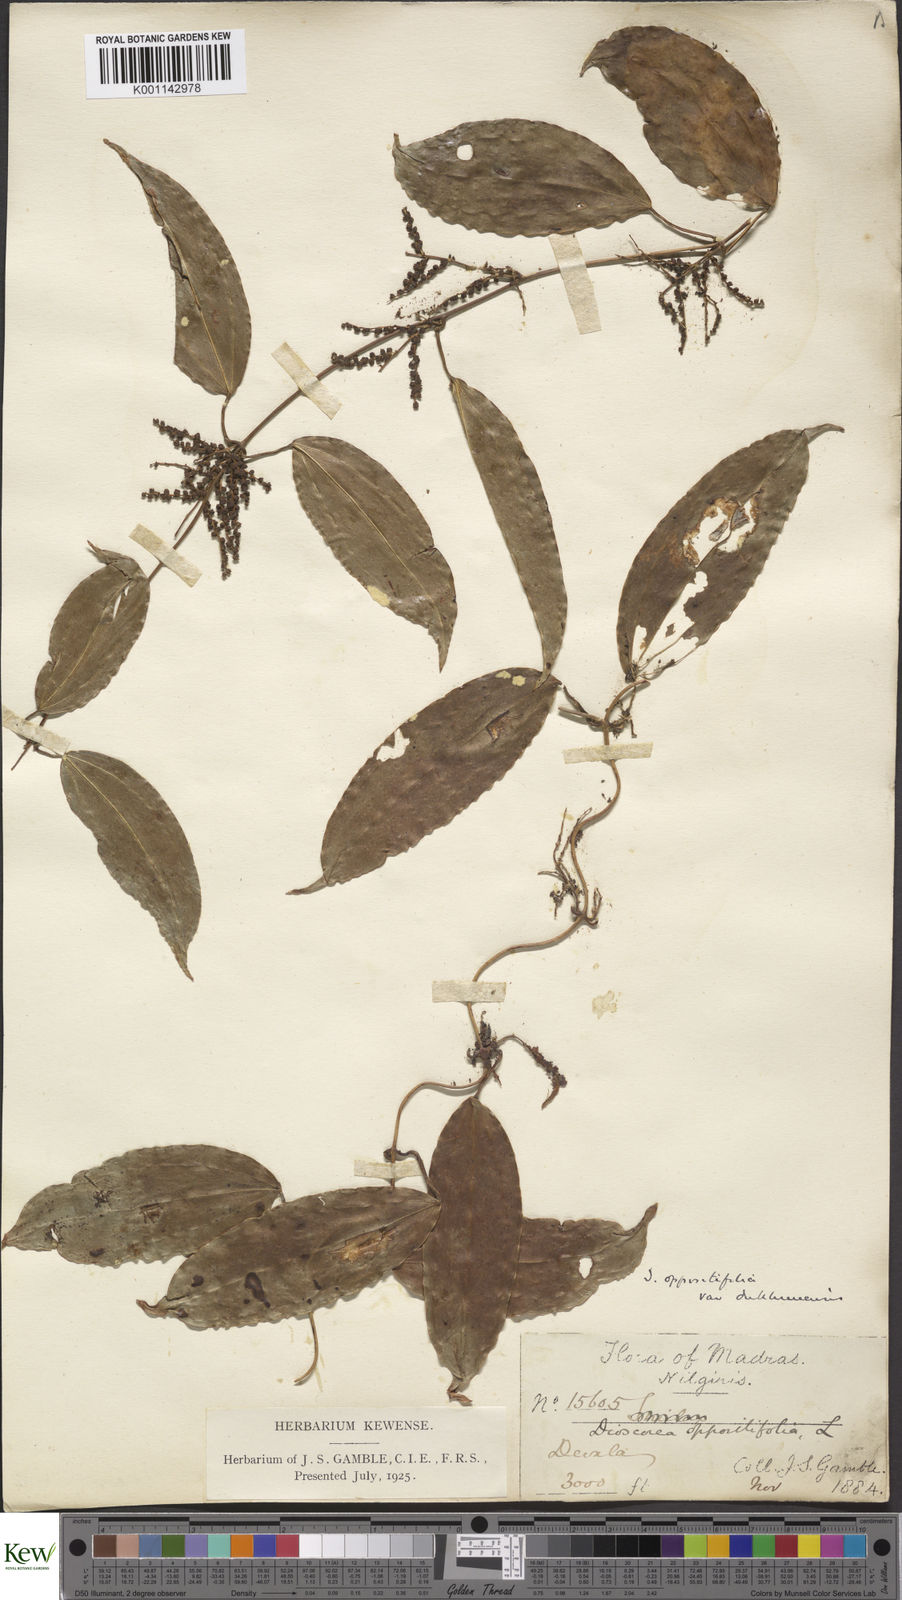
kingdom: Plantae
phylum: Tracheophyta
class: Liliopsida
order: Dioscoreales
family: Dioscoreaceae
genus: Dioscorea
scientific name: Dioscorea oppositifolia
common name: Chinese yam
